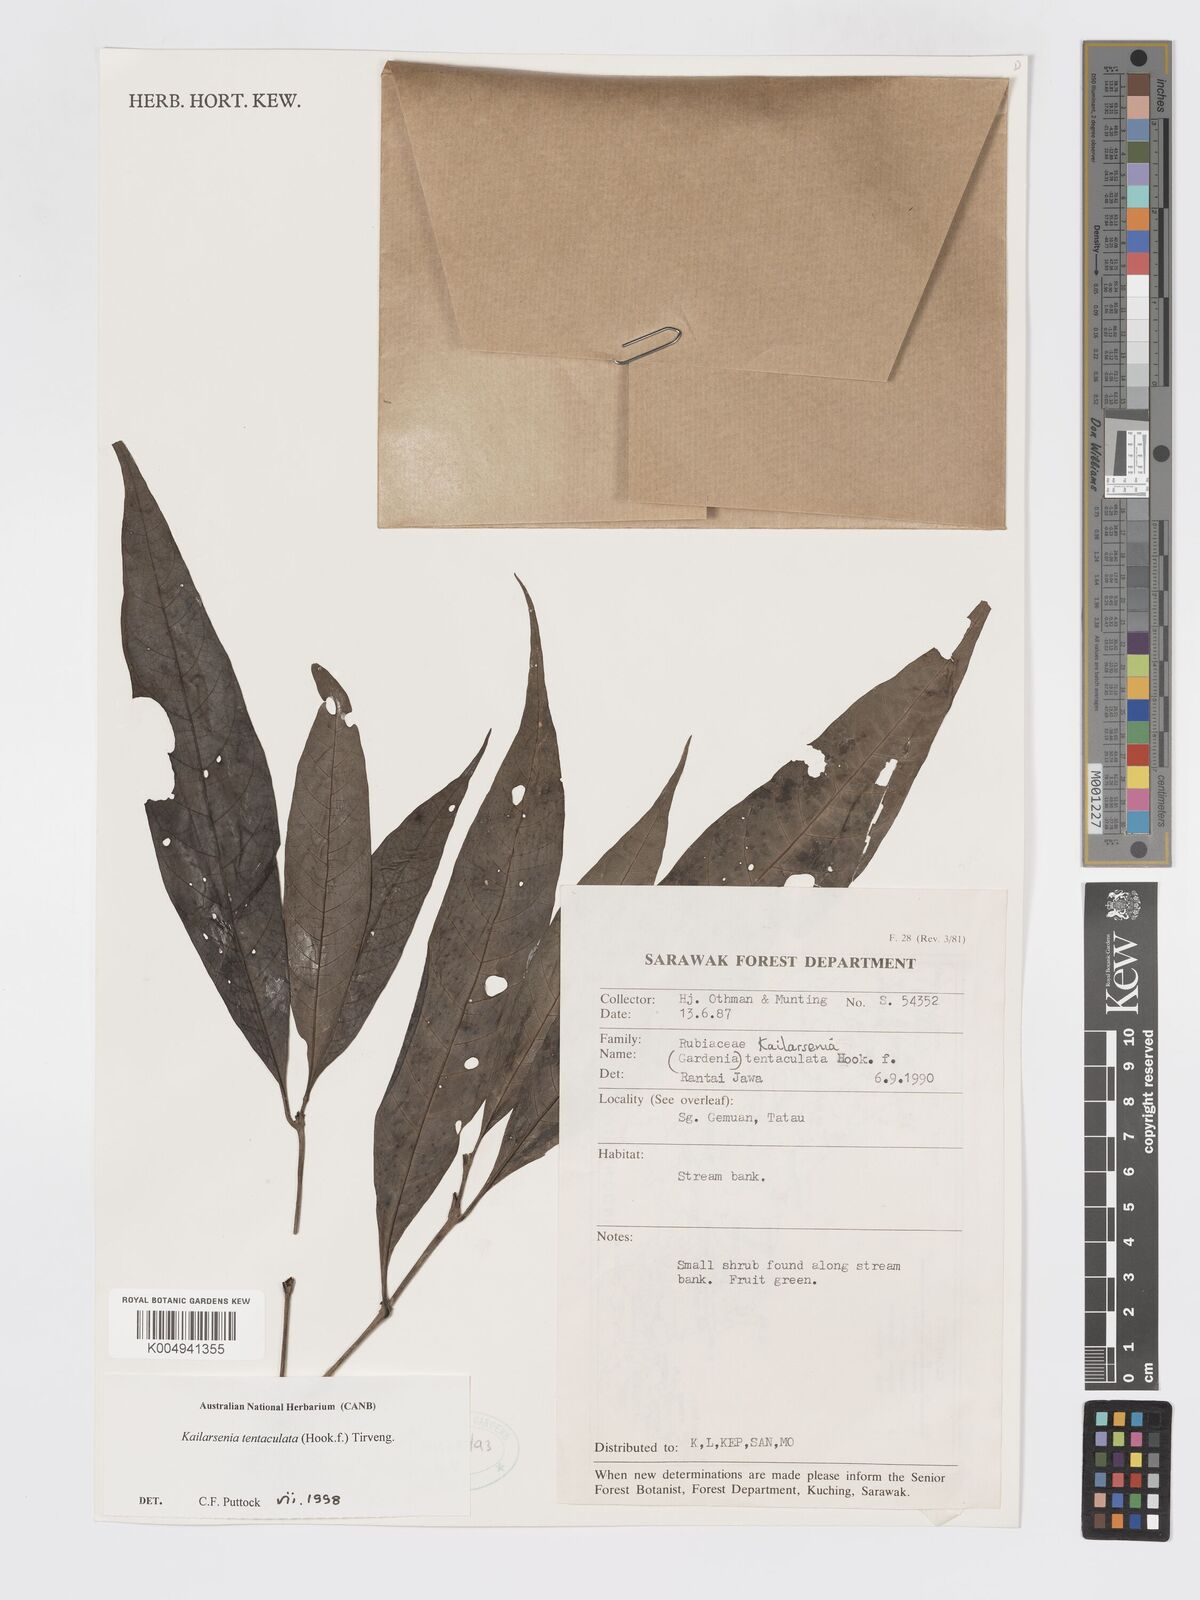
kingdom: Plantae
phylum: Tracheophyta
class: Magnoliopsida
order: Gentianales
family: Rubiaceae
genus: Kailarsenia
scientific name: Kailarsenia tentaculata
